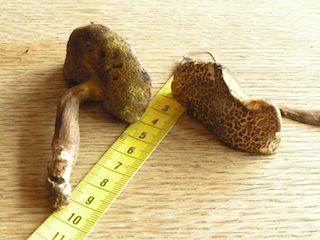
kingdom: Fungi
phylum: Basidiomycota
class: Agaricomycetes
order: Boletales
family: Boletaceae
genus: Xerocomellus
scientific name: Xerocomellus porosporus
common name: hvidsprukken rørhat
